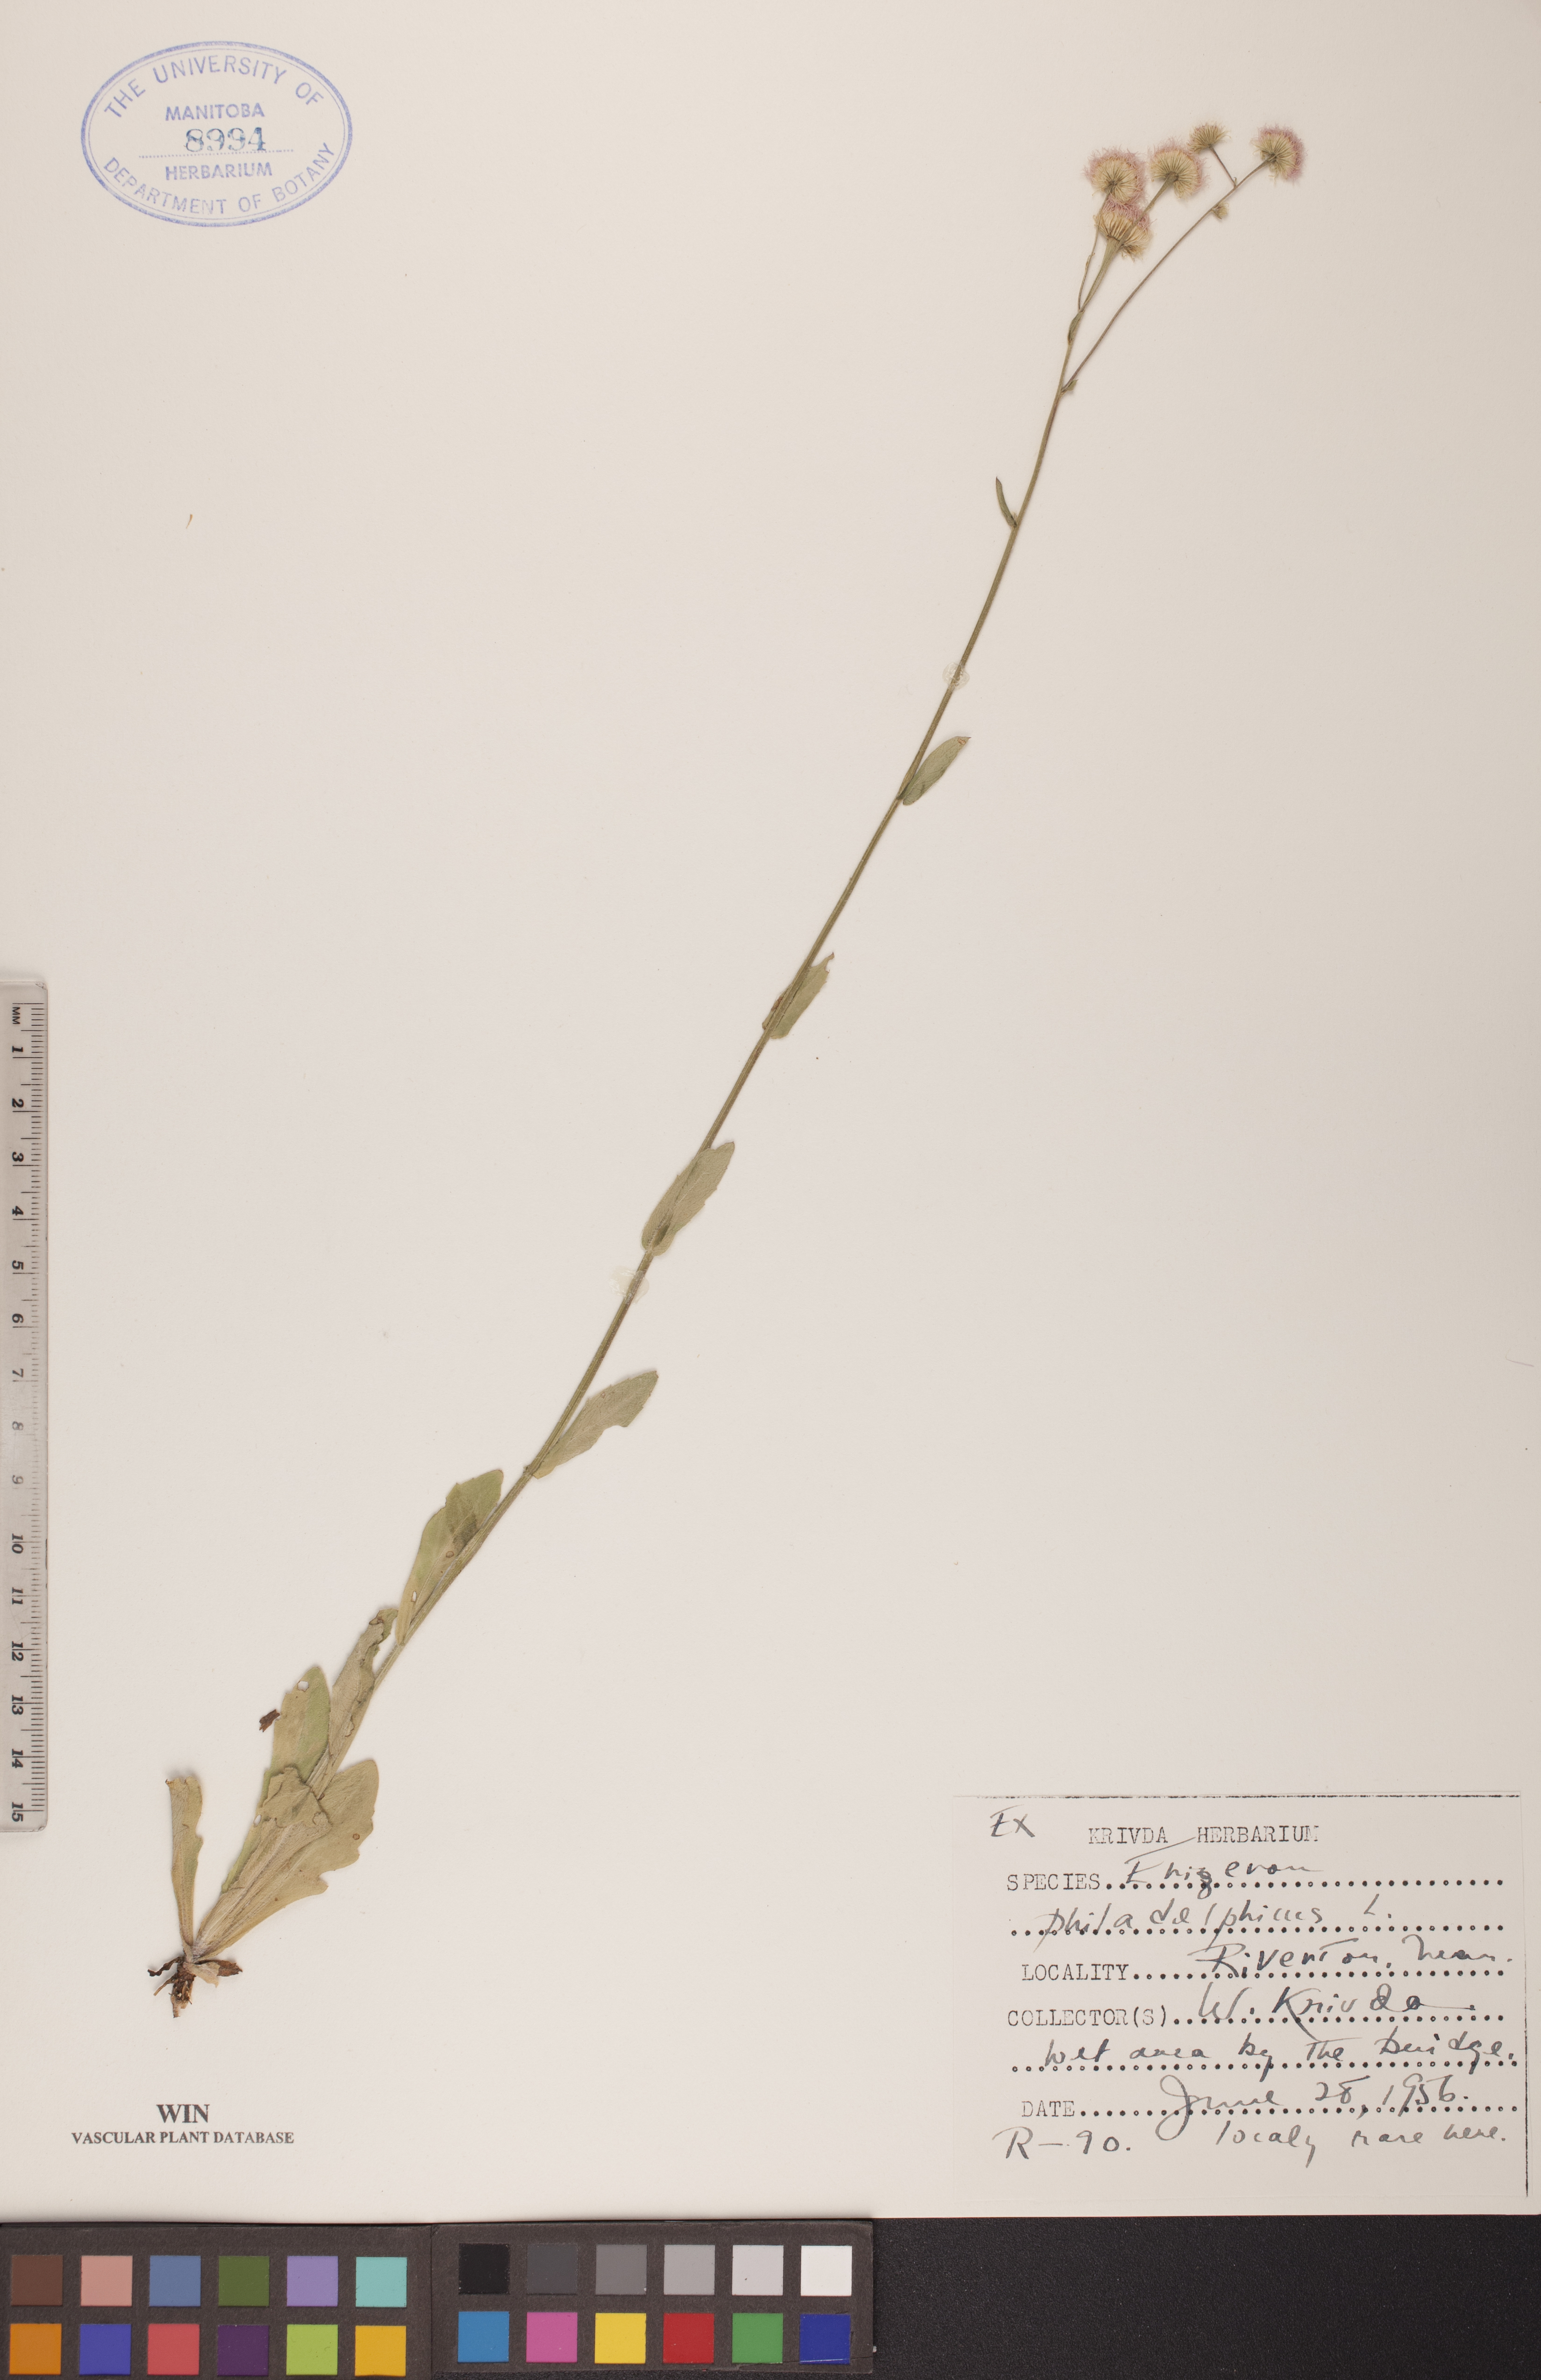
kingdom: Plantae
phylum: Tracheophyta
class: Magnoliopsida
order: Asterales
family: Asteraceae
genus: Erigeron
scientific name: Erigeron philadelphicus
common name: Robin's-plantain
